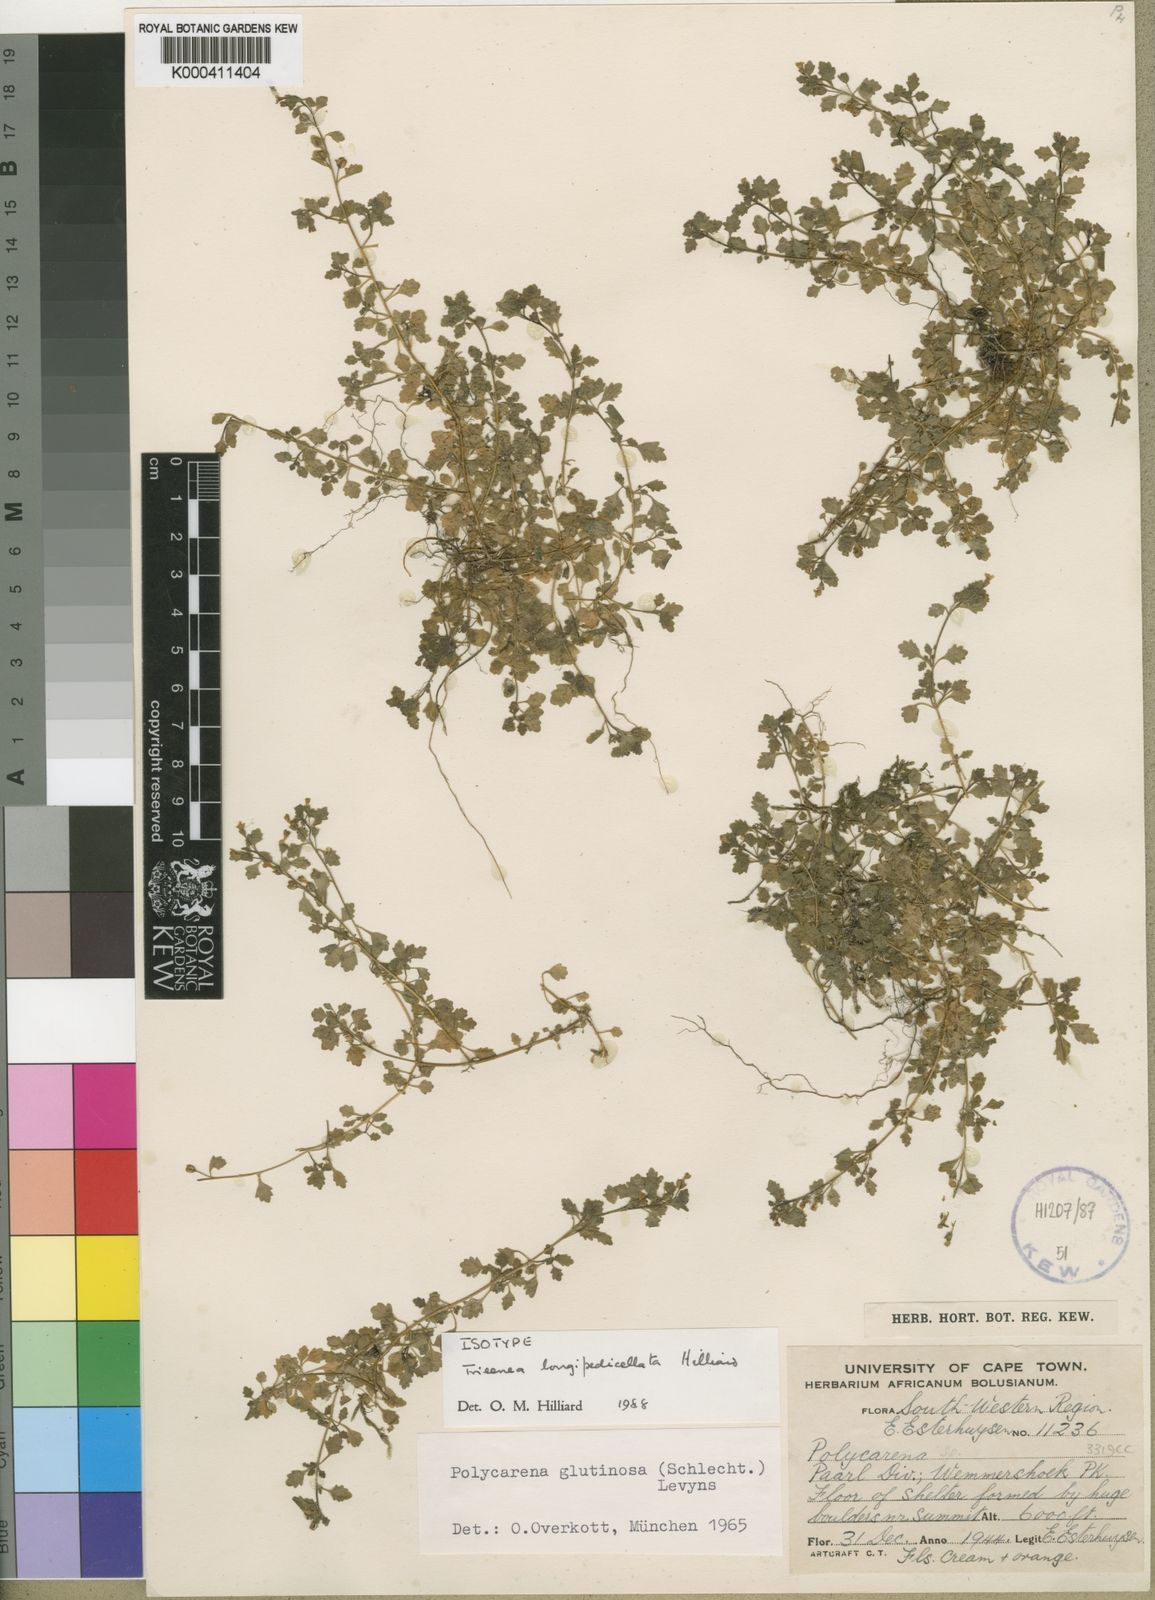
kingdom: Plantae
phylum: Tracheophyta
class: Magnoliopsida
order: Lamiales
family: Scrophulariaceae
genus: Trieenea
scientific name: Trieenea longipedicellata
